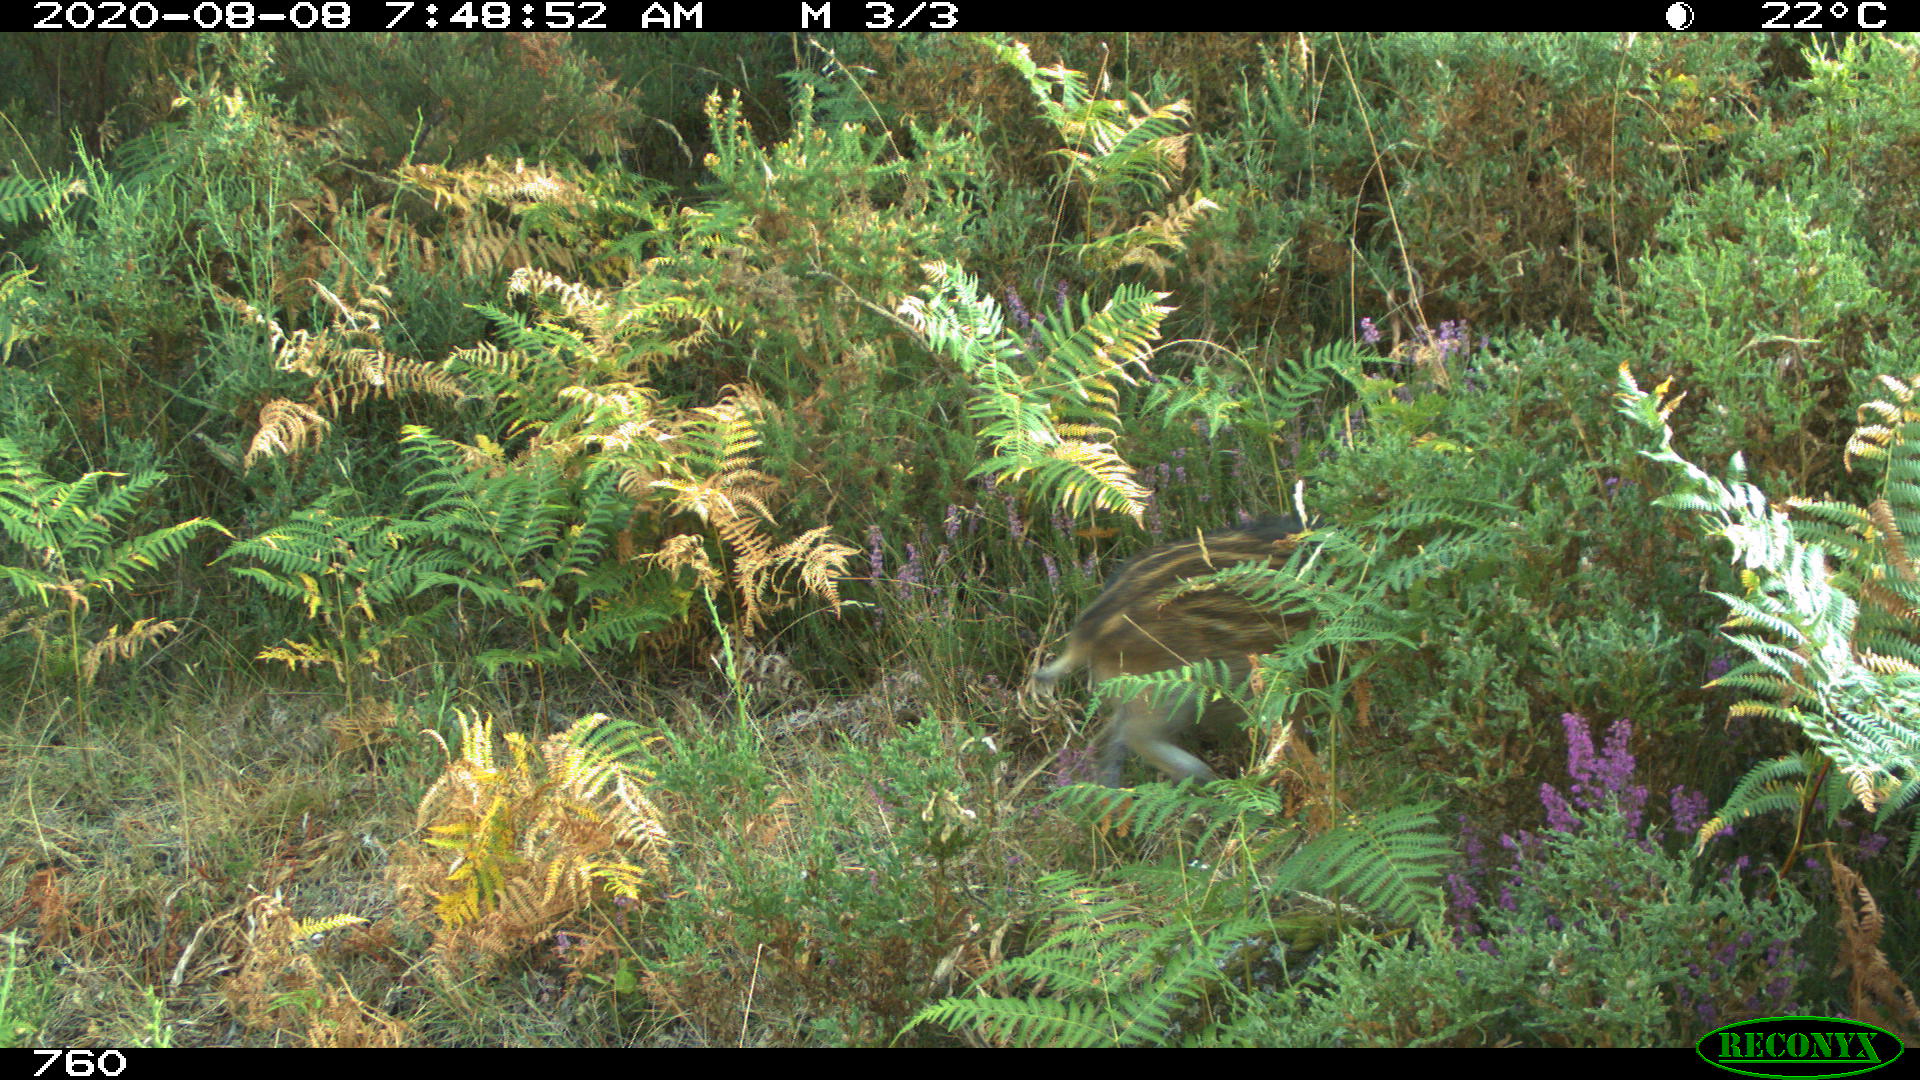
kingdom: Animalia
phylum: Chordata
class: Mammalia
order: Artiodactyla
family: Suidae
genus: Sus
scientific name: Sus scrofa
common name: Wild boar
